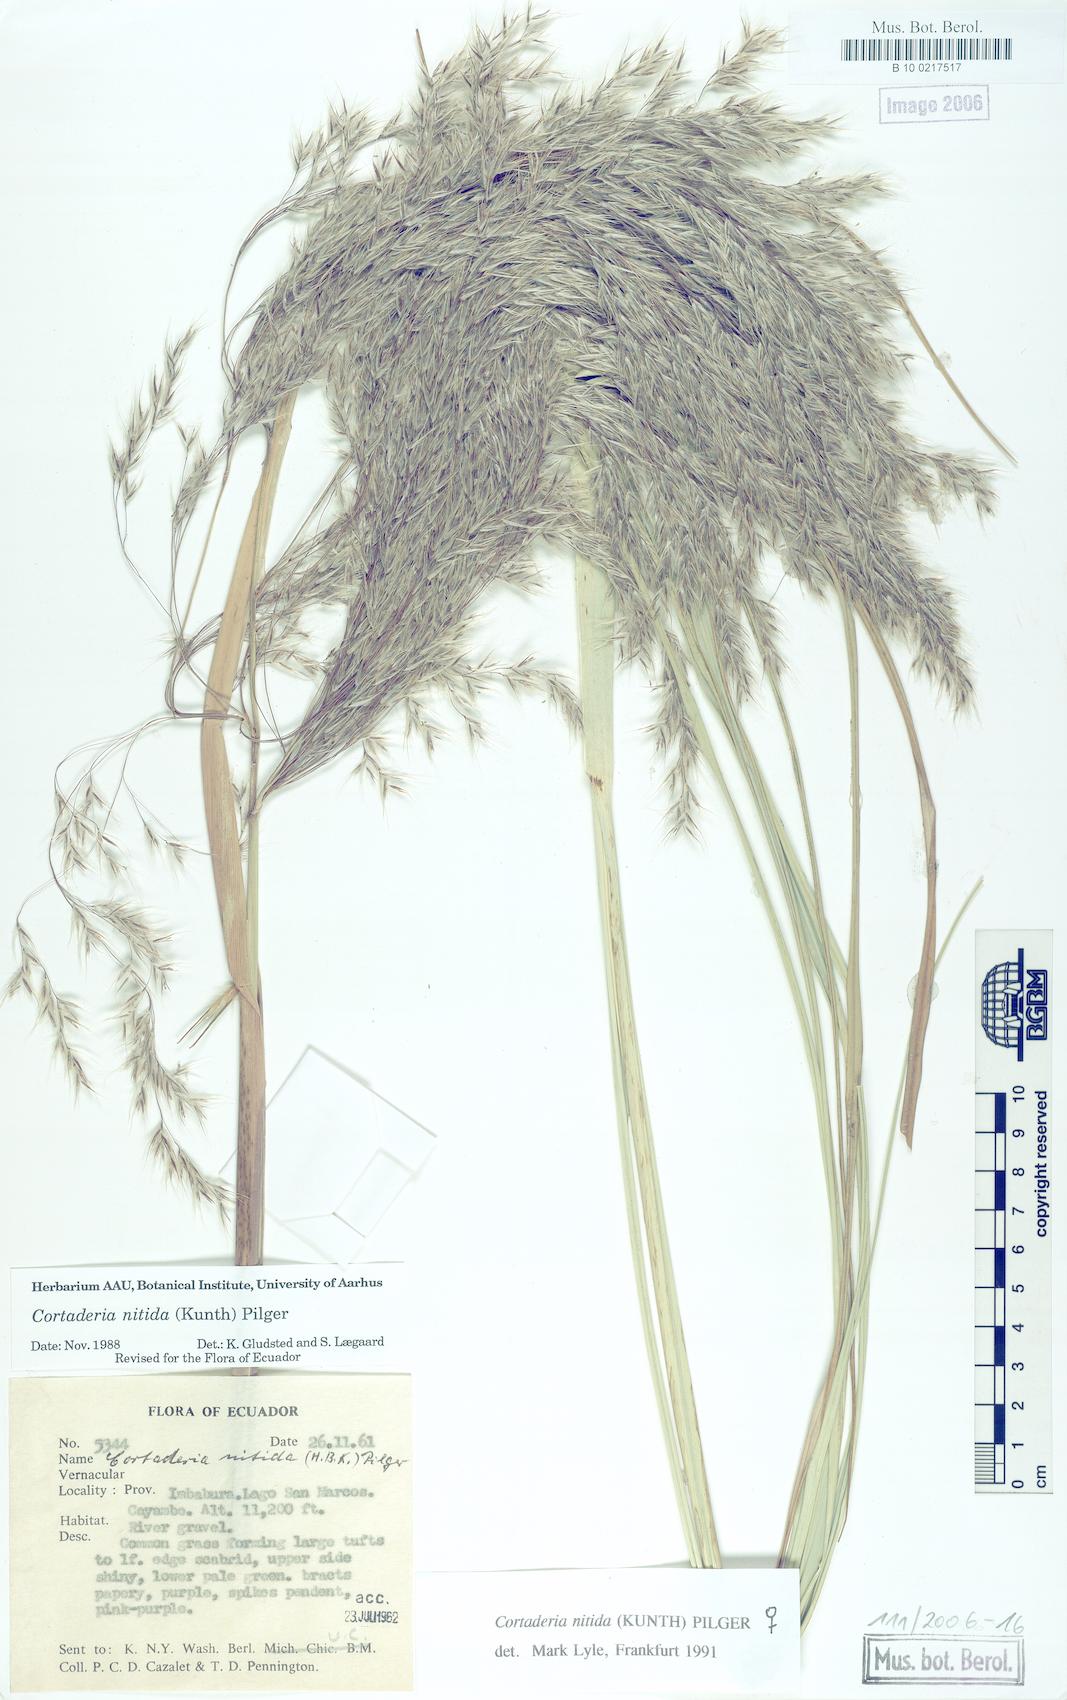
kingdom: Plantae
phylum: Tracheophyta
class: Liliopsida
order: Poales
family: Poaceae
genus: Cortaderia
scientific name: Cortaderia nitida
